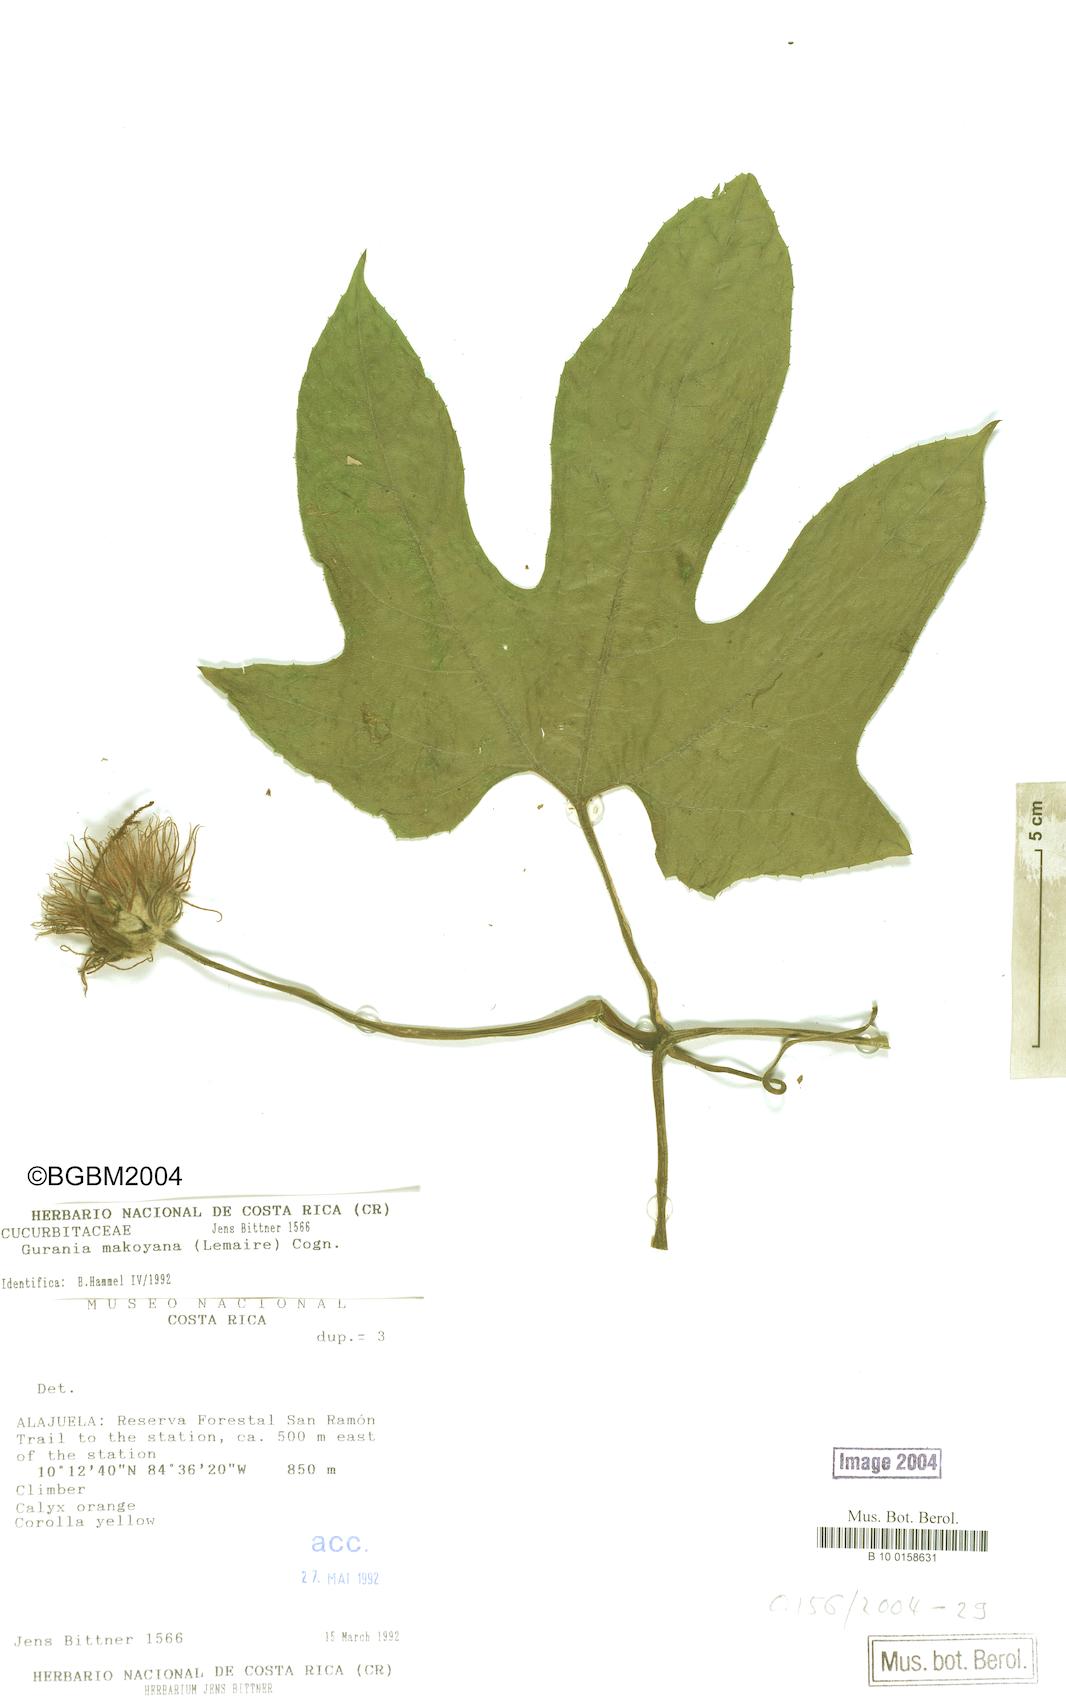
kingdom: Plantae
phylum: Tracheophyta
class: Magnoliopsida
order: Cucurbitales
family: Cucurbitaceae
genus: Gurania
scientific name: Gurania makoyana
